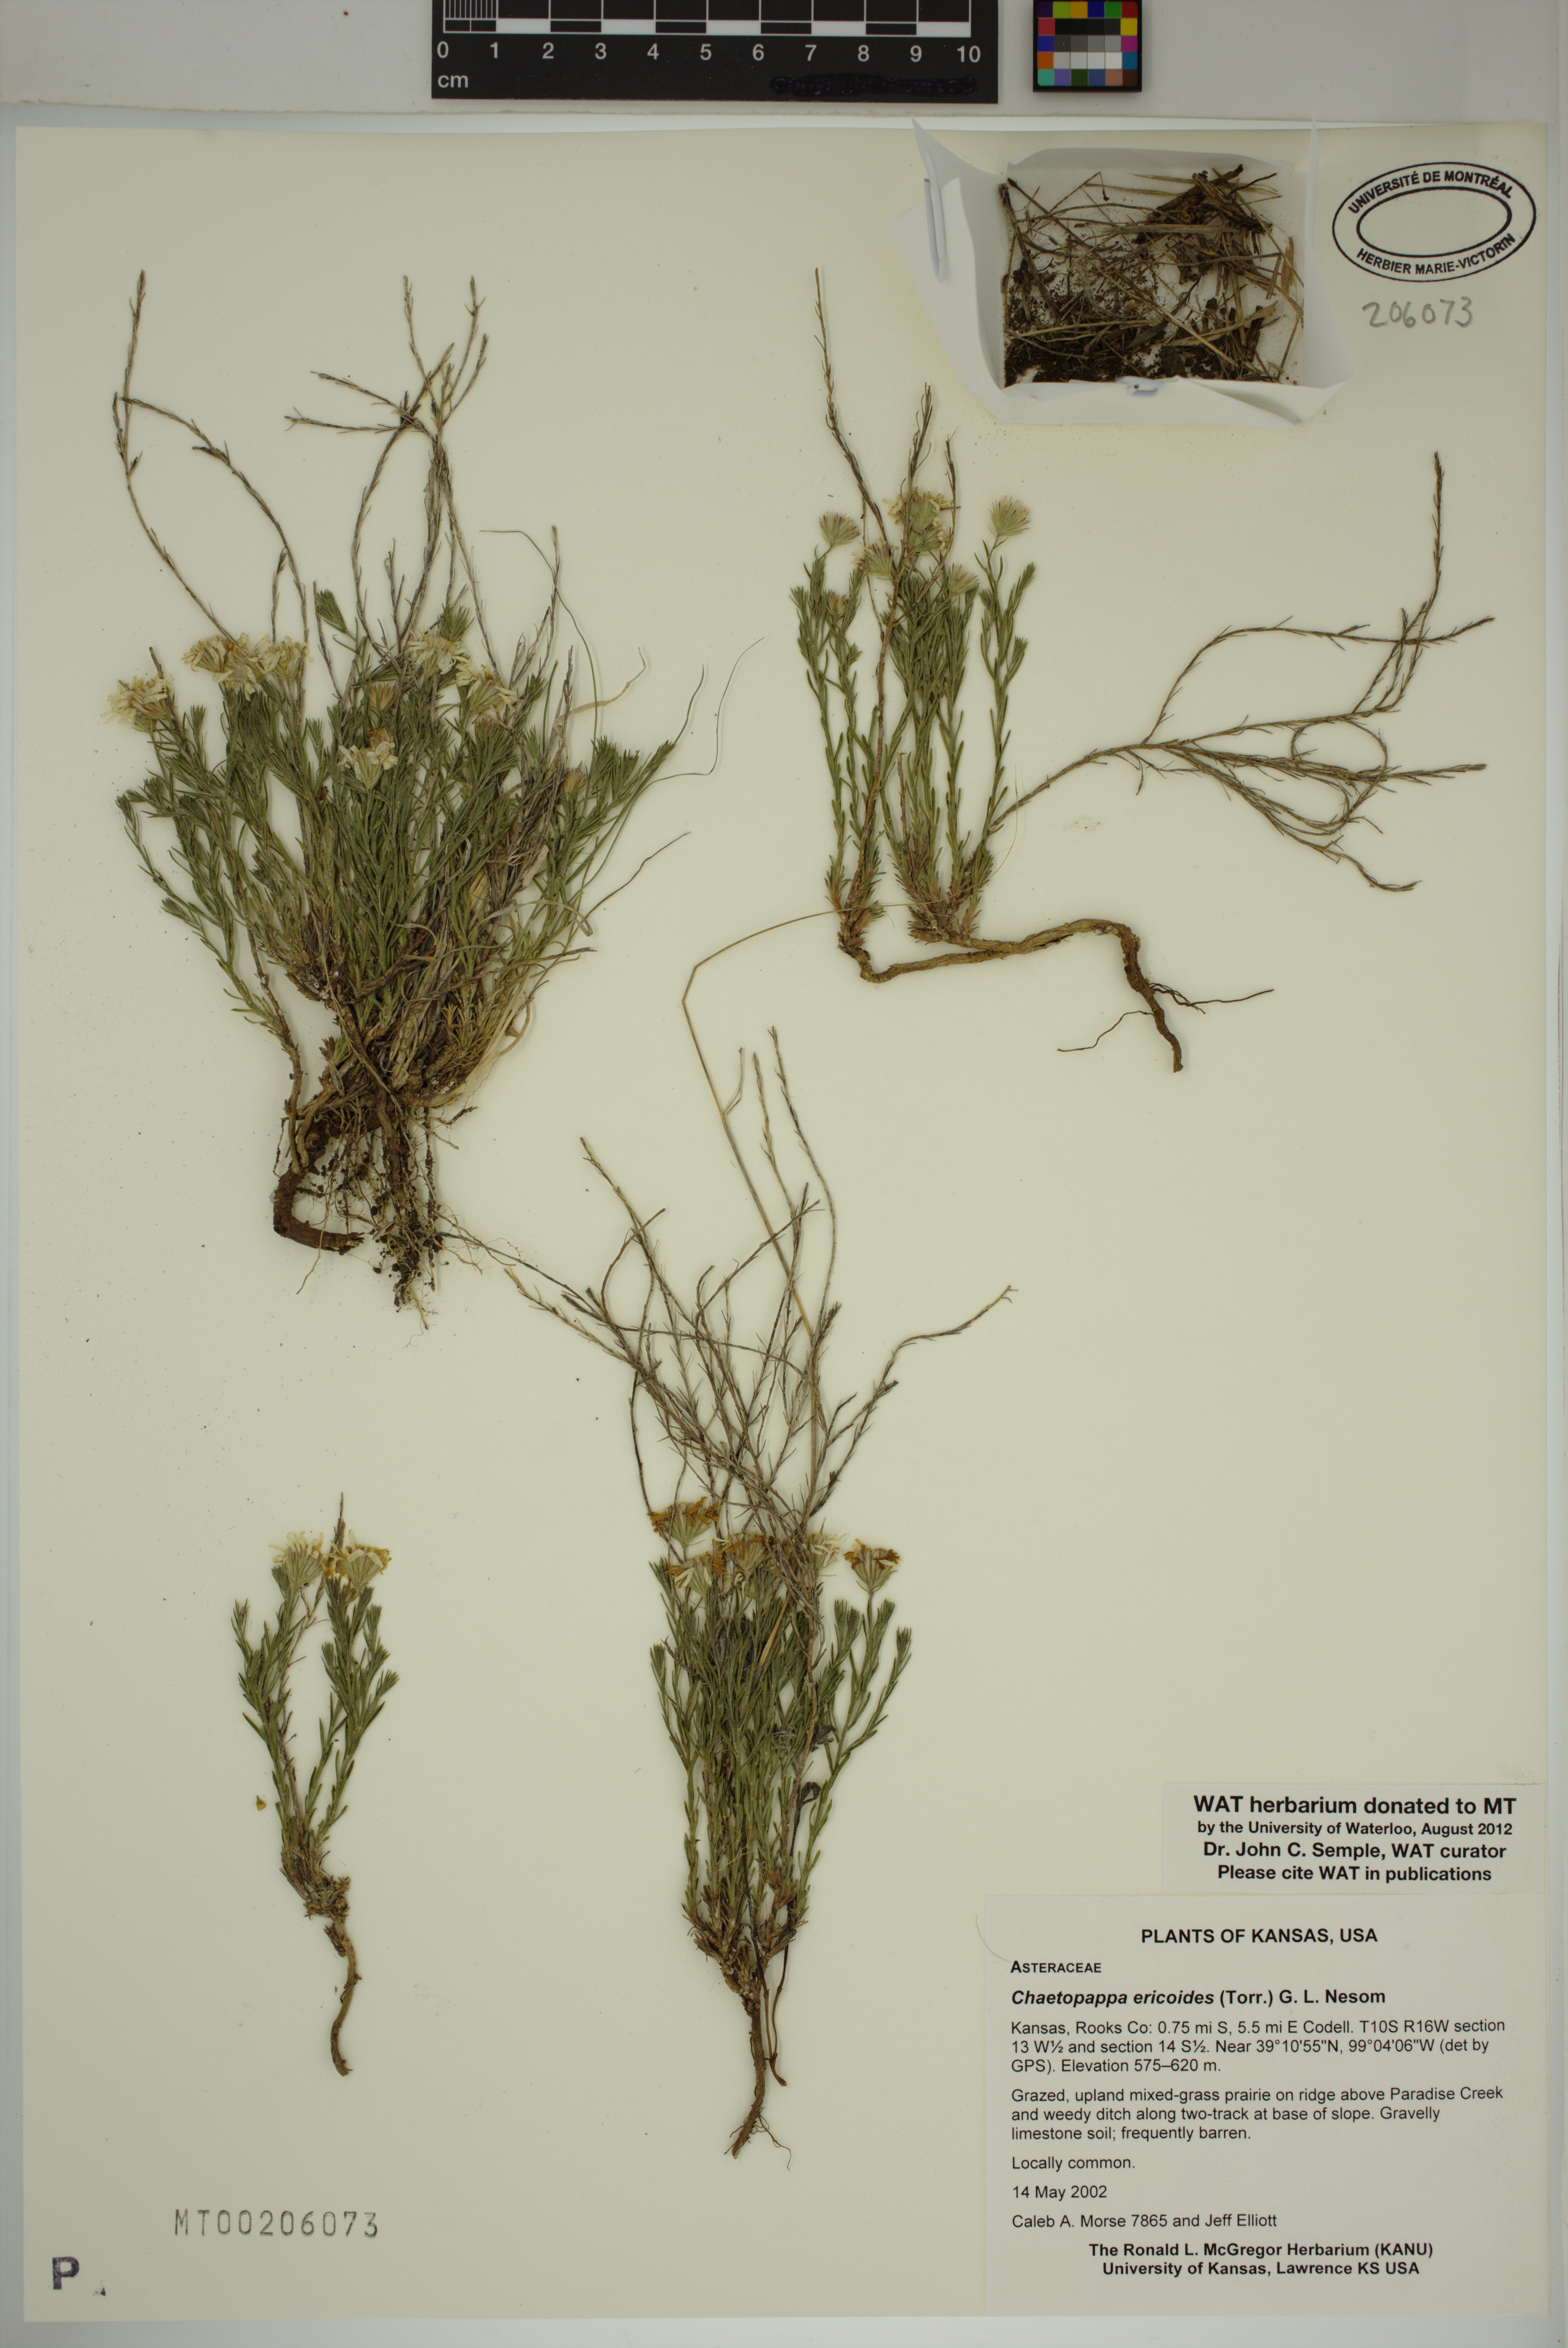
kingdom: Plantae
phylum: Tracheophyta
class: Magnoliopsida
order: Asterales
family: Asteraceae
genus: Chaetopappa
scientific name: Chaetopappa ericoides
